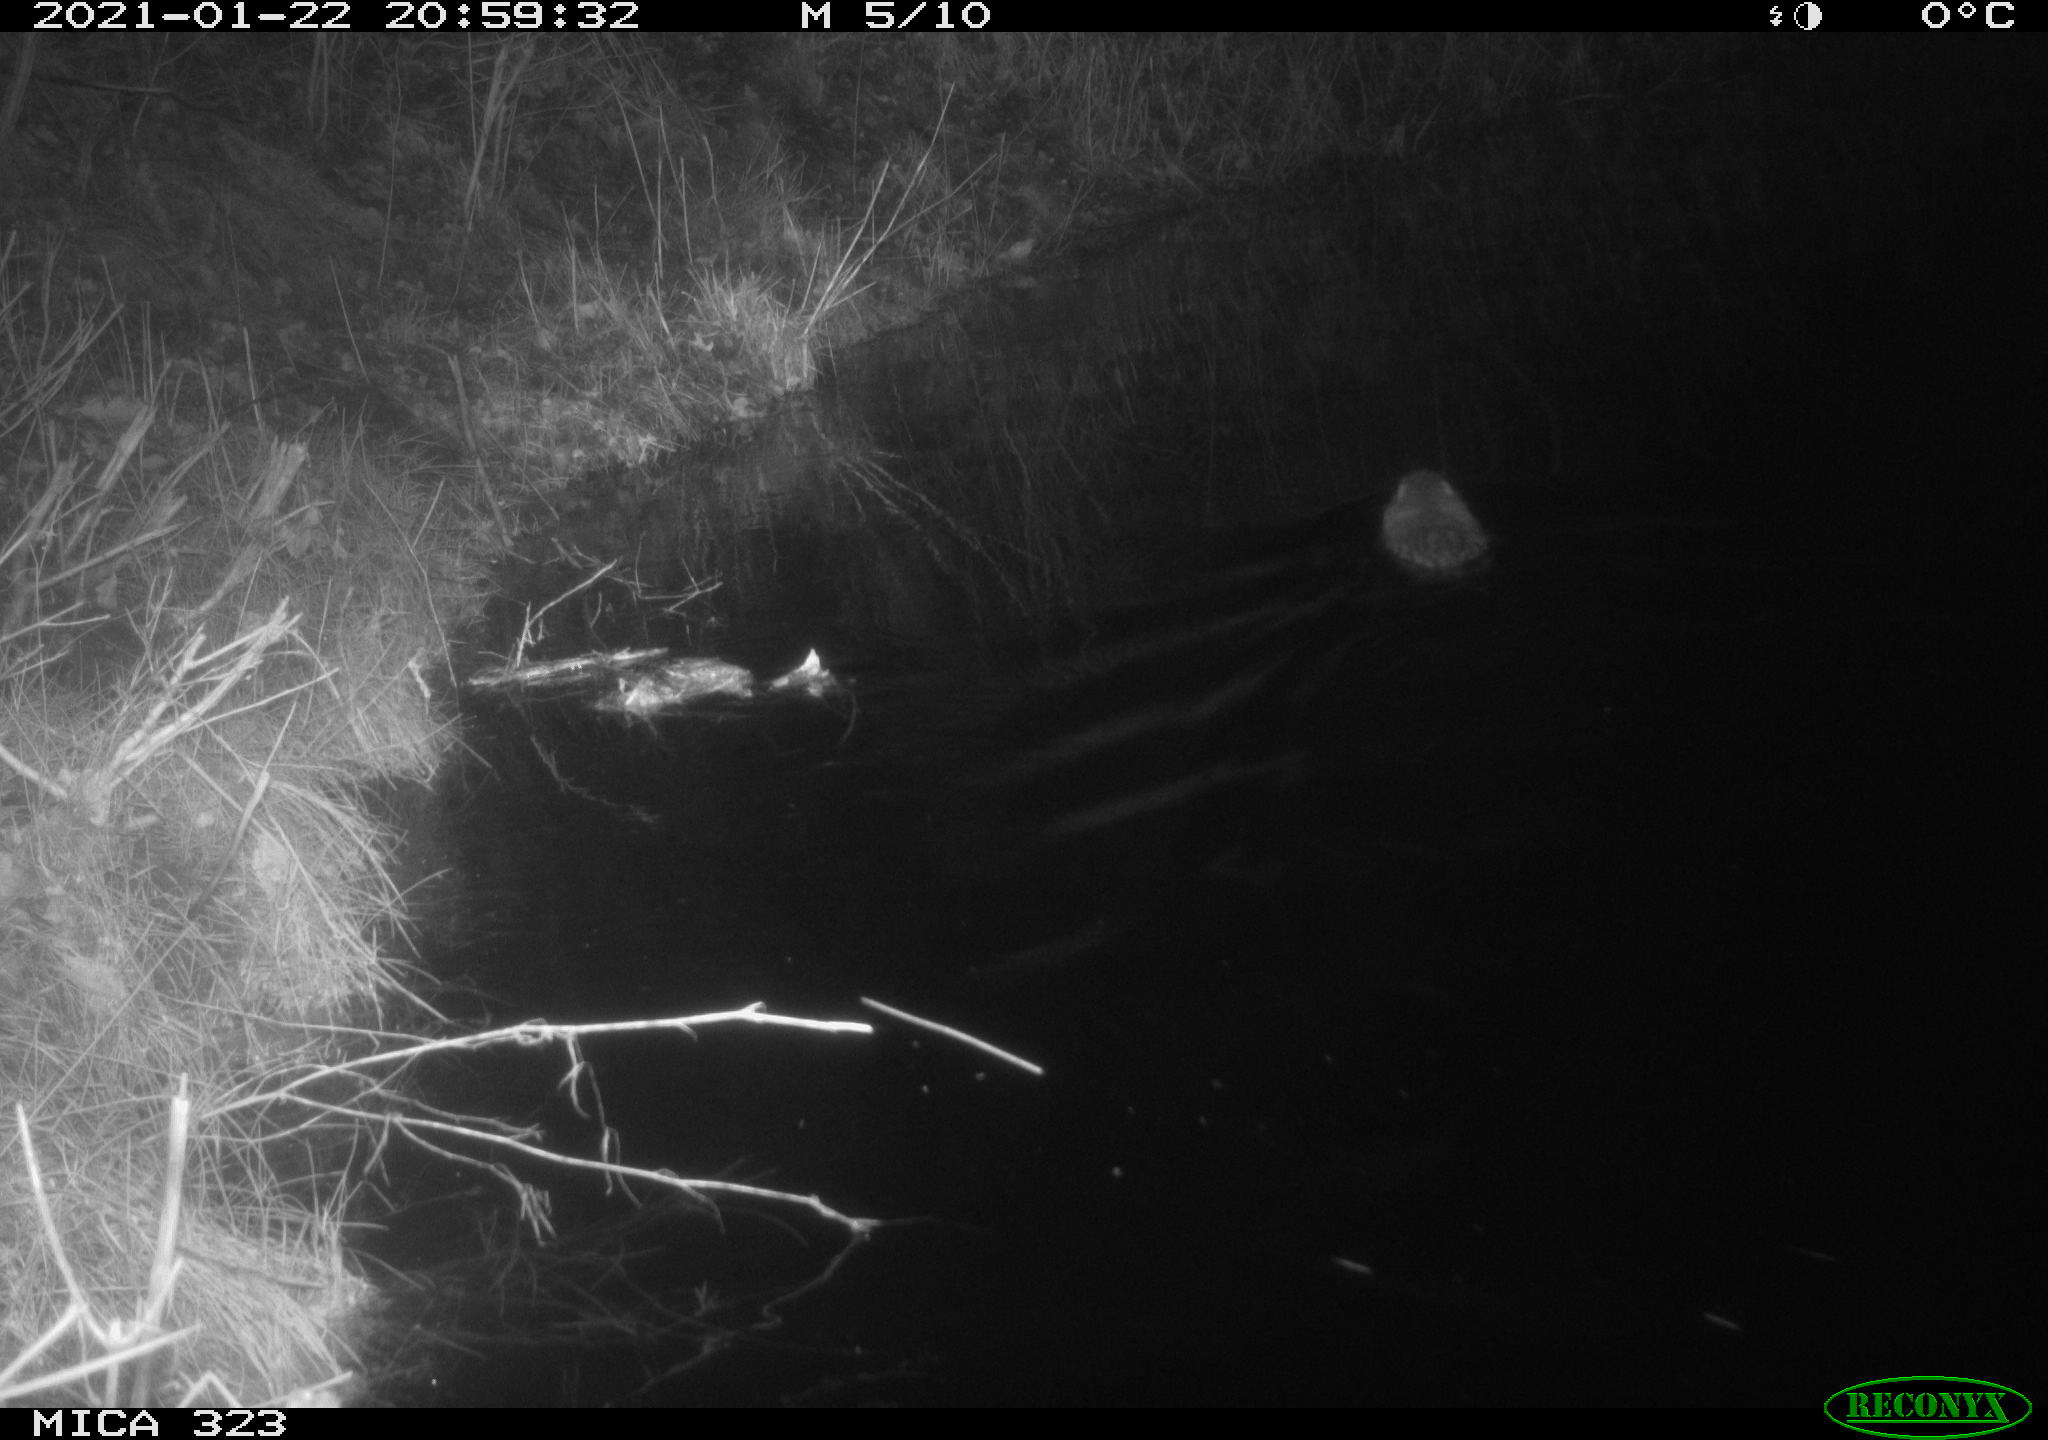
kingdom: Animalia
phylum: Chordata
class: Mammalia
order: Rodentia
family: Myocastoridae
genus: Myocastor
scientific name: Myocastor coypus
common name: Coypu
